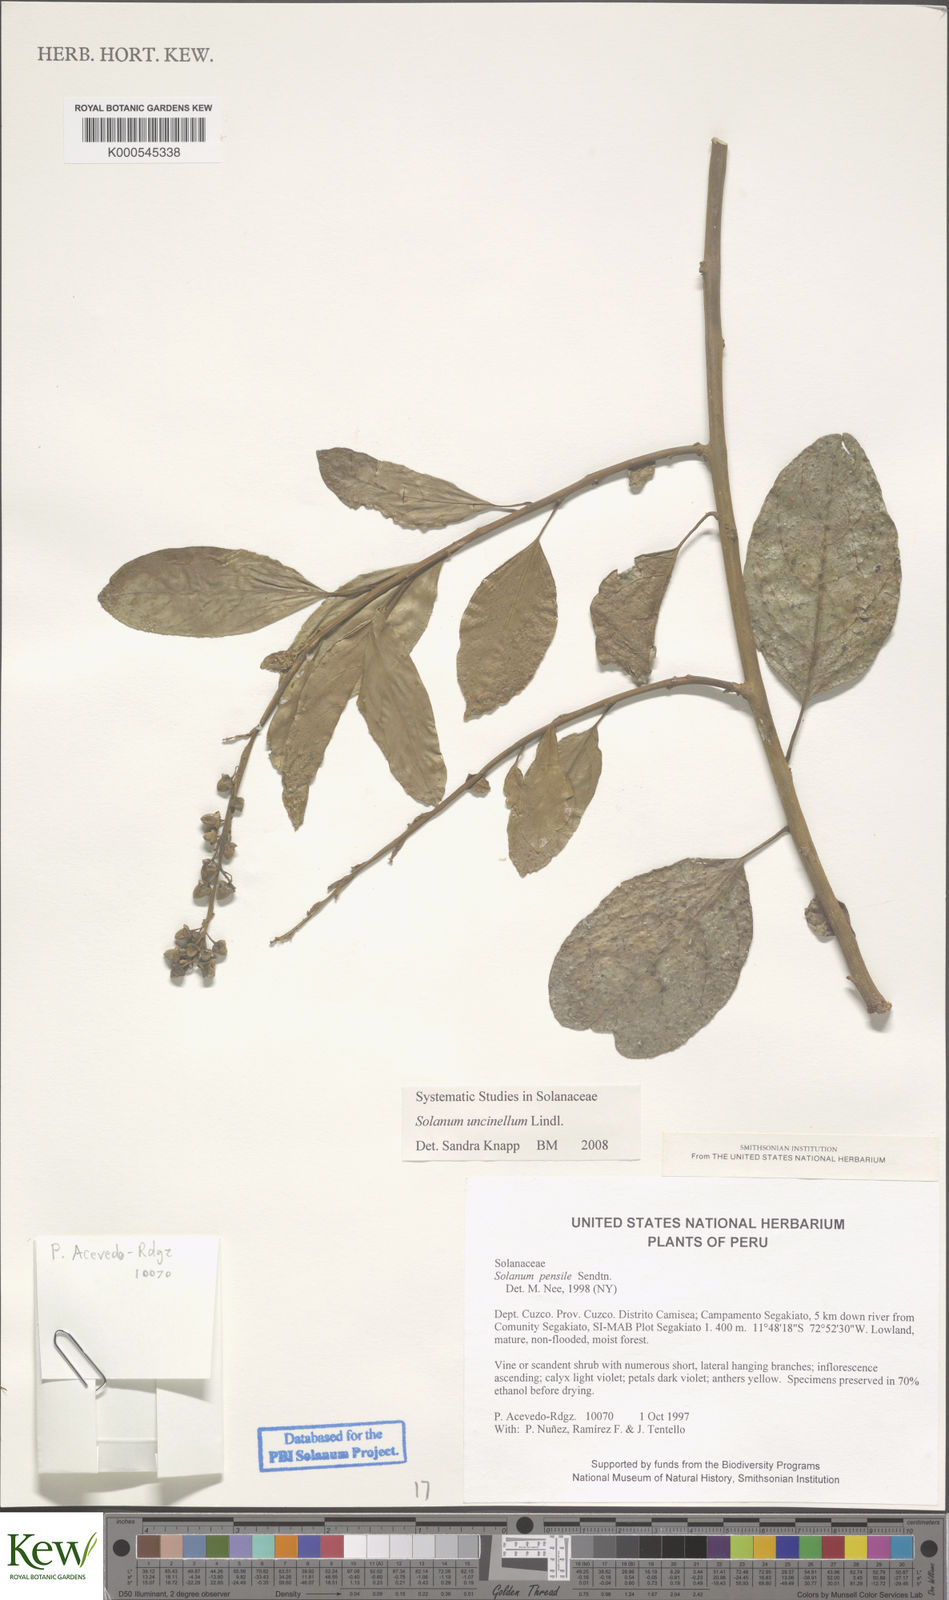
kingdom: Plantae
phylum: Tracheophyta
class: Magnoliopsida
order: Solanales
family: Solanaceae
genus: Solanum
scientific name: Solanum uncinellum
